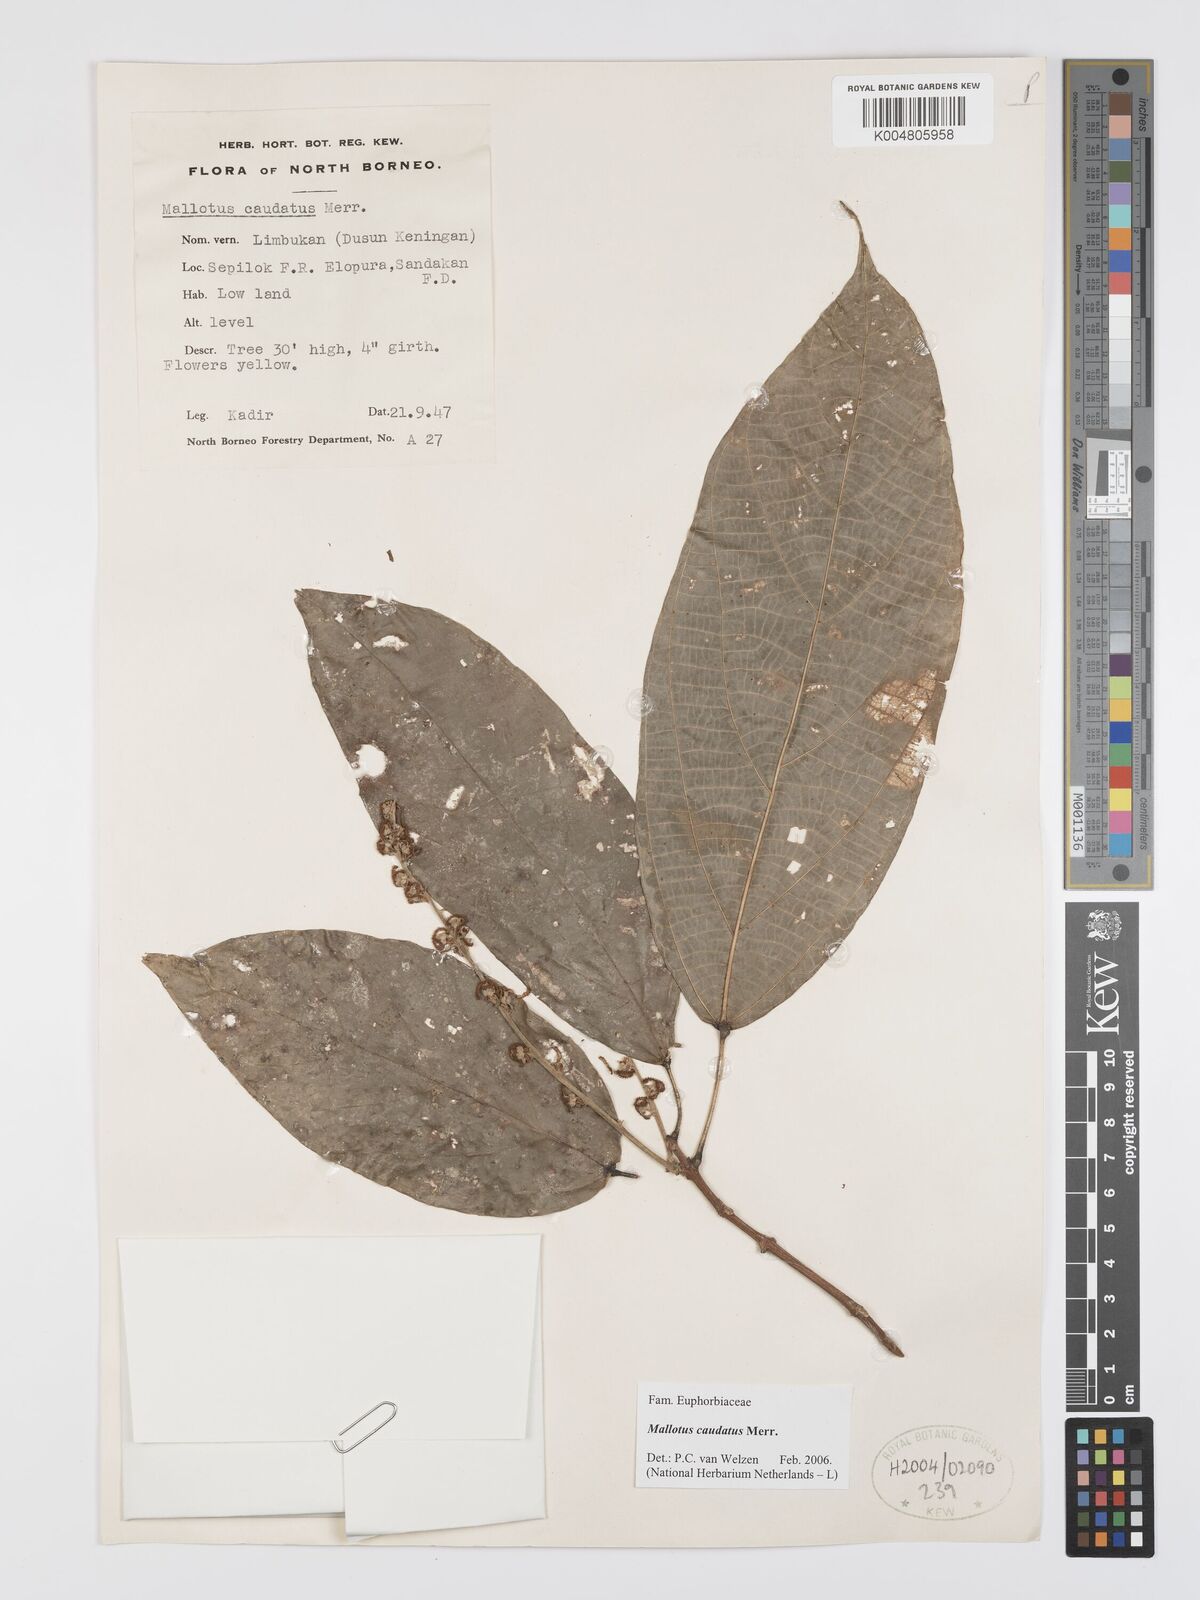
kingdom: Plantae
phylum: Tracheophyta
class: Magnoliopsida
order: Malpighiales
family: Euphorbiaceae
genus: Mallotus
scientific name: Mallotus caudatus
